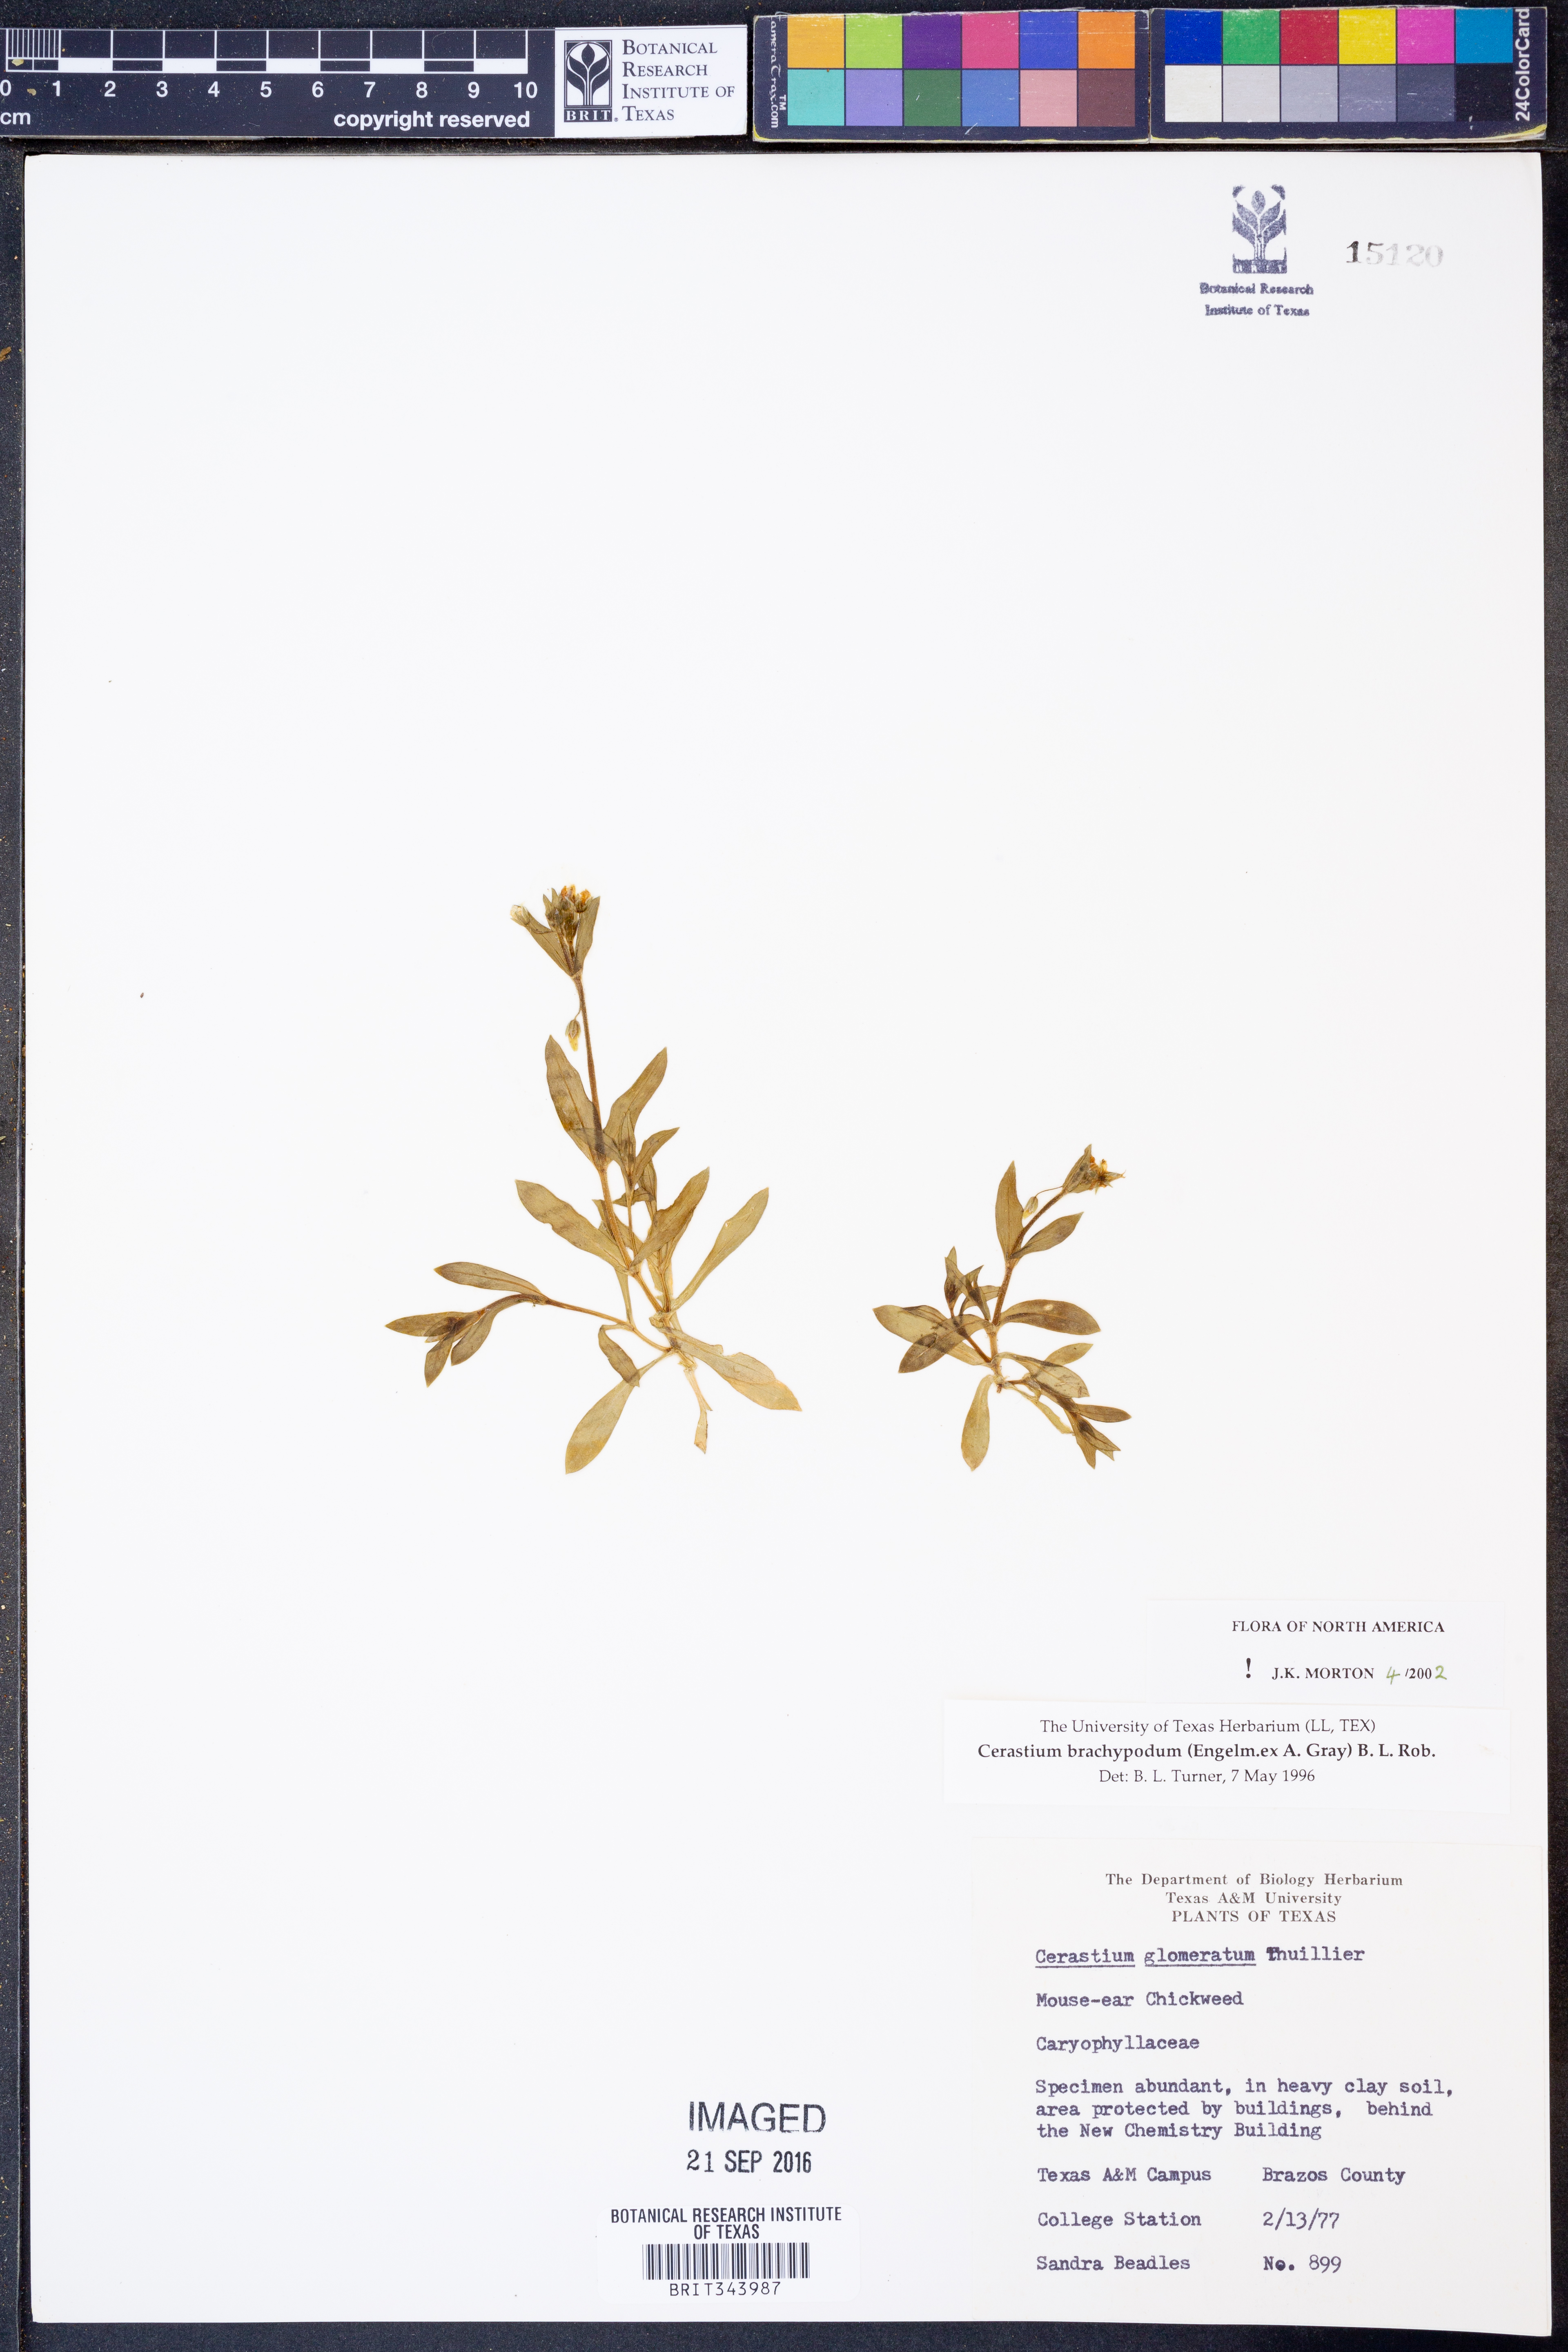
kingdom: Plantae
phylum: Tracheophyta
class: Magnoliopsida
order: Caryophyllales
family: Caryophyllaceae
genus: Cerastium
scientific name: Cerastium brachypodum
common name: Short-pedicelled nodding chickweed
